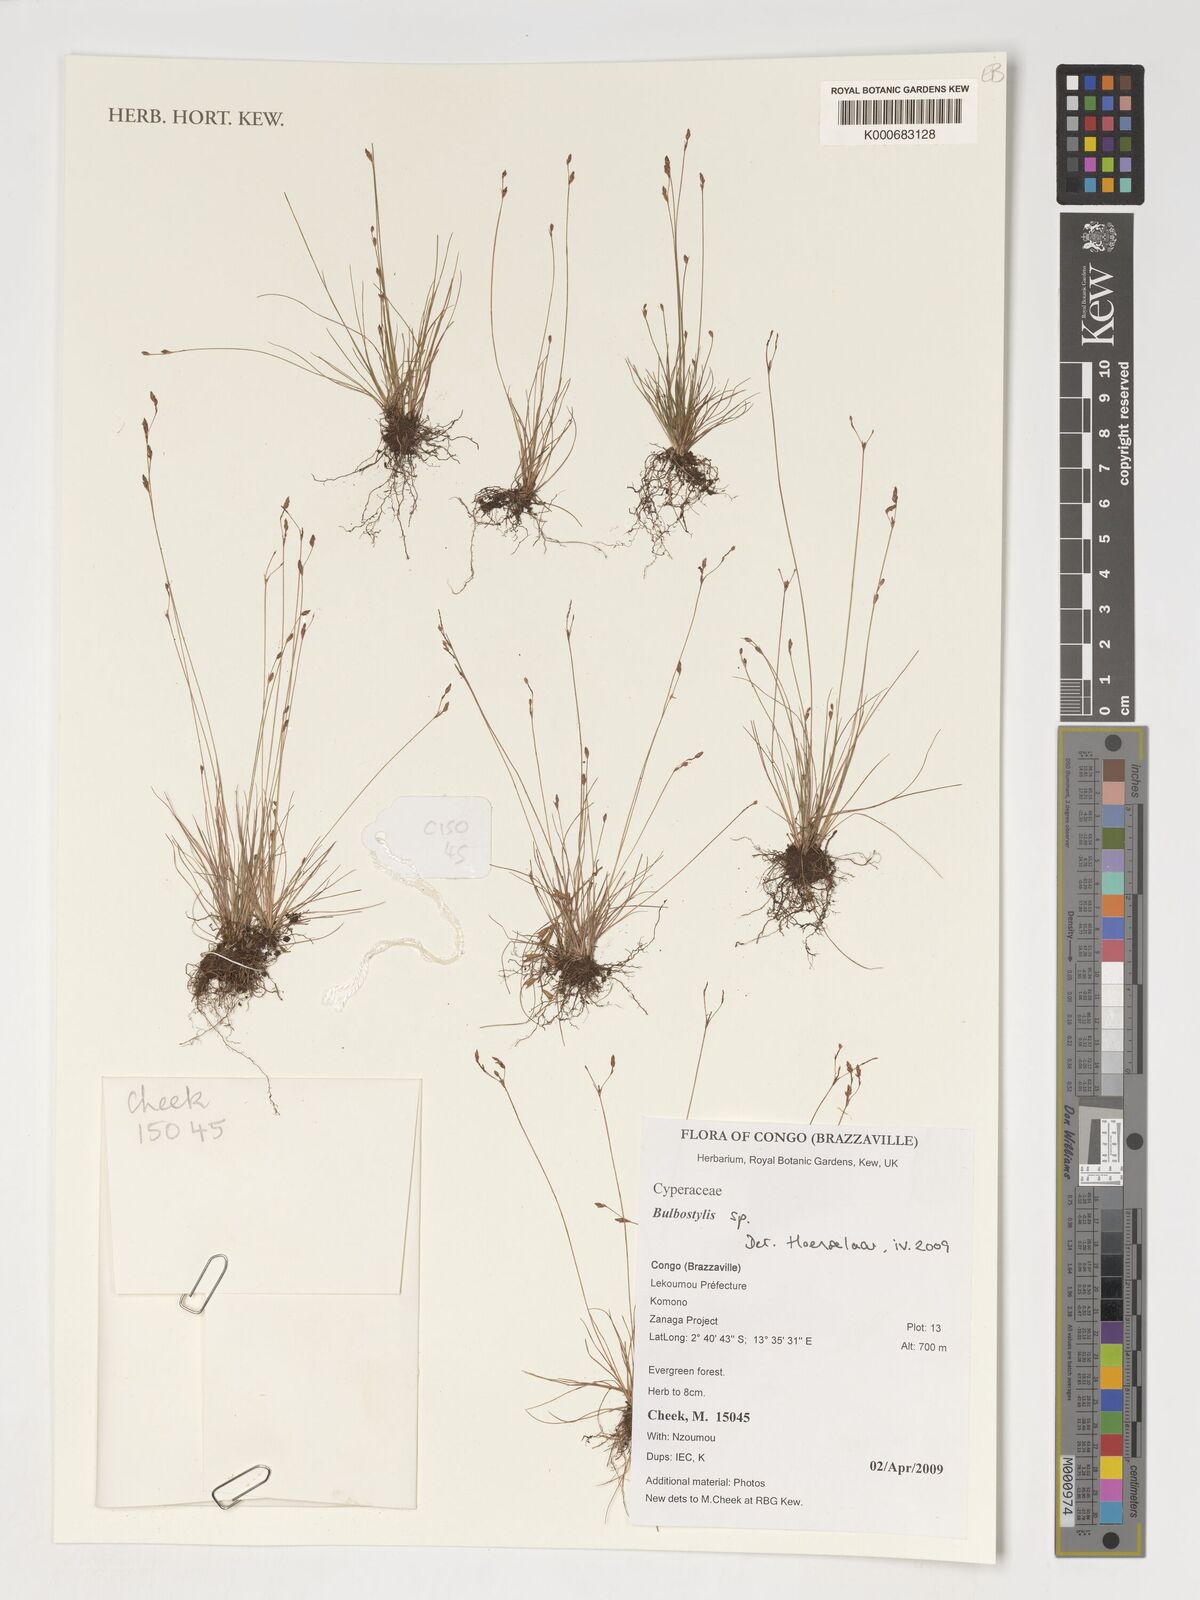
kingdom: Plantae
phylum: Tracheophyta
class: Liliopsida
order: Poales
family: Cyperaceae
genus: Bulbostylis
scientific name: Bulbostylis
